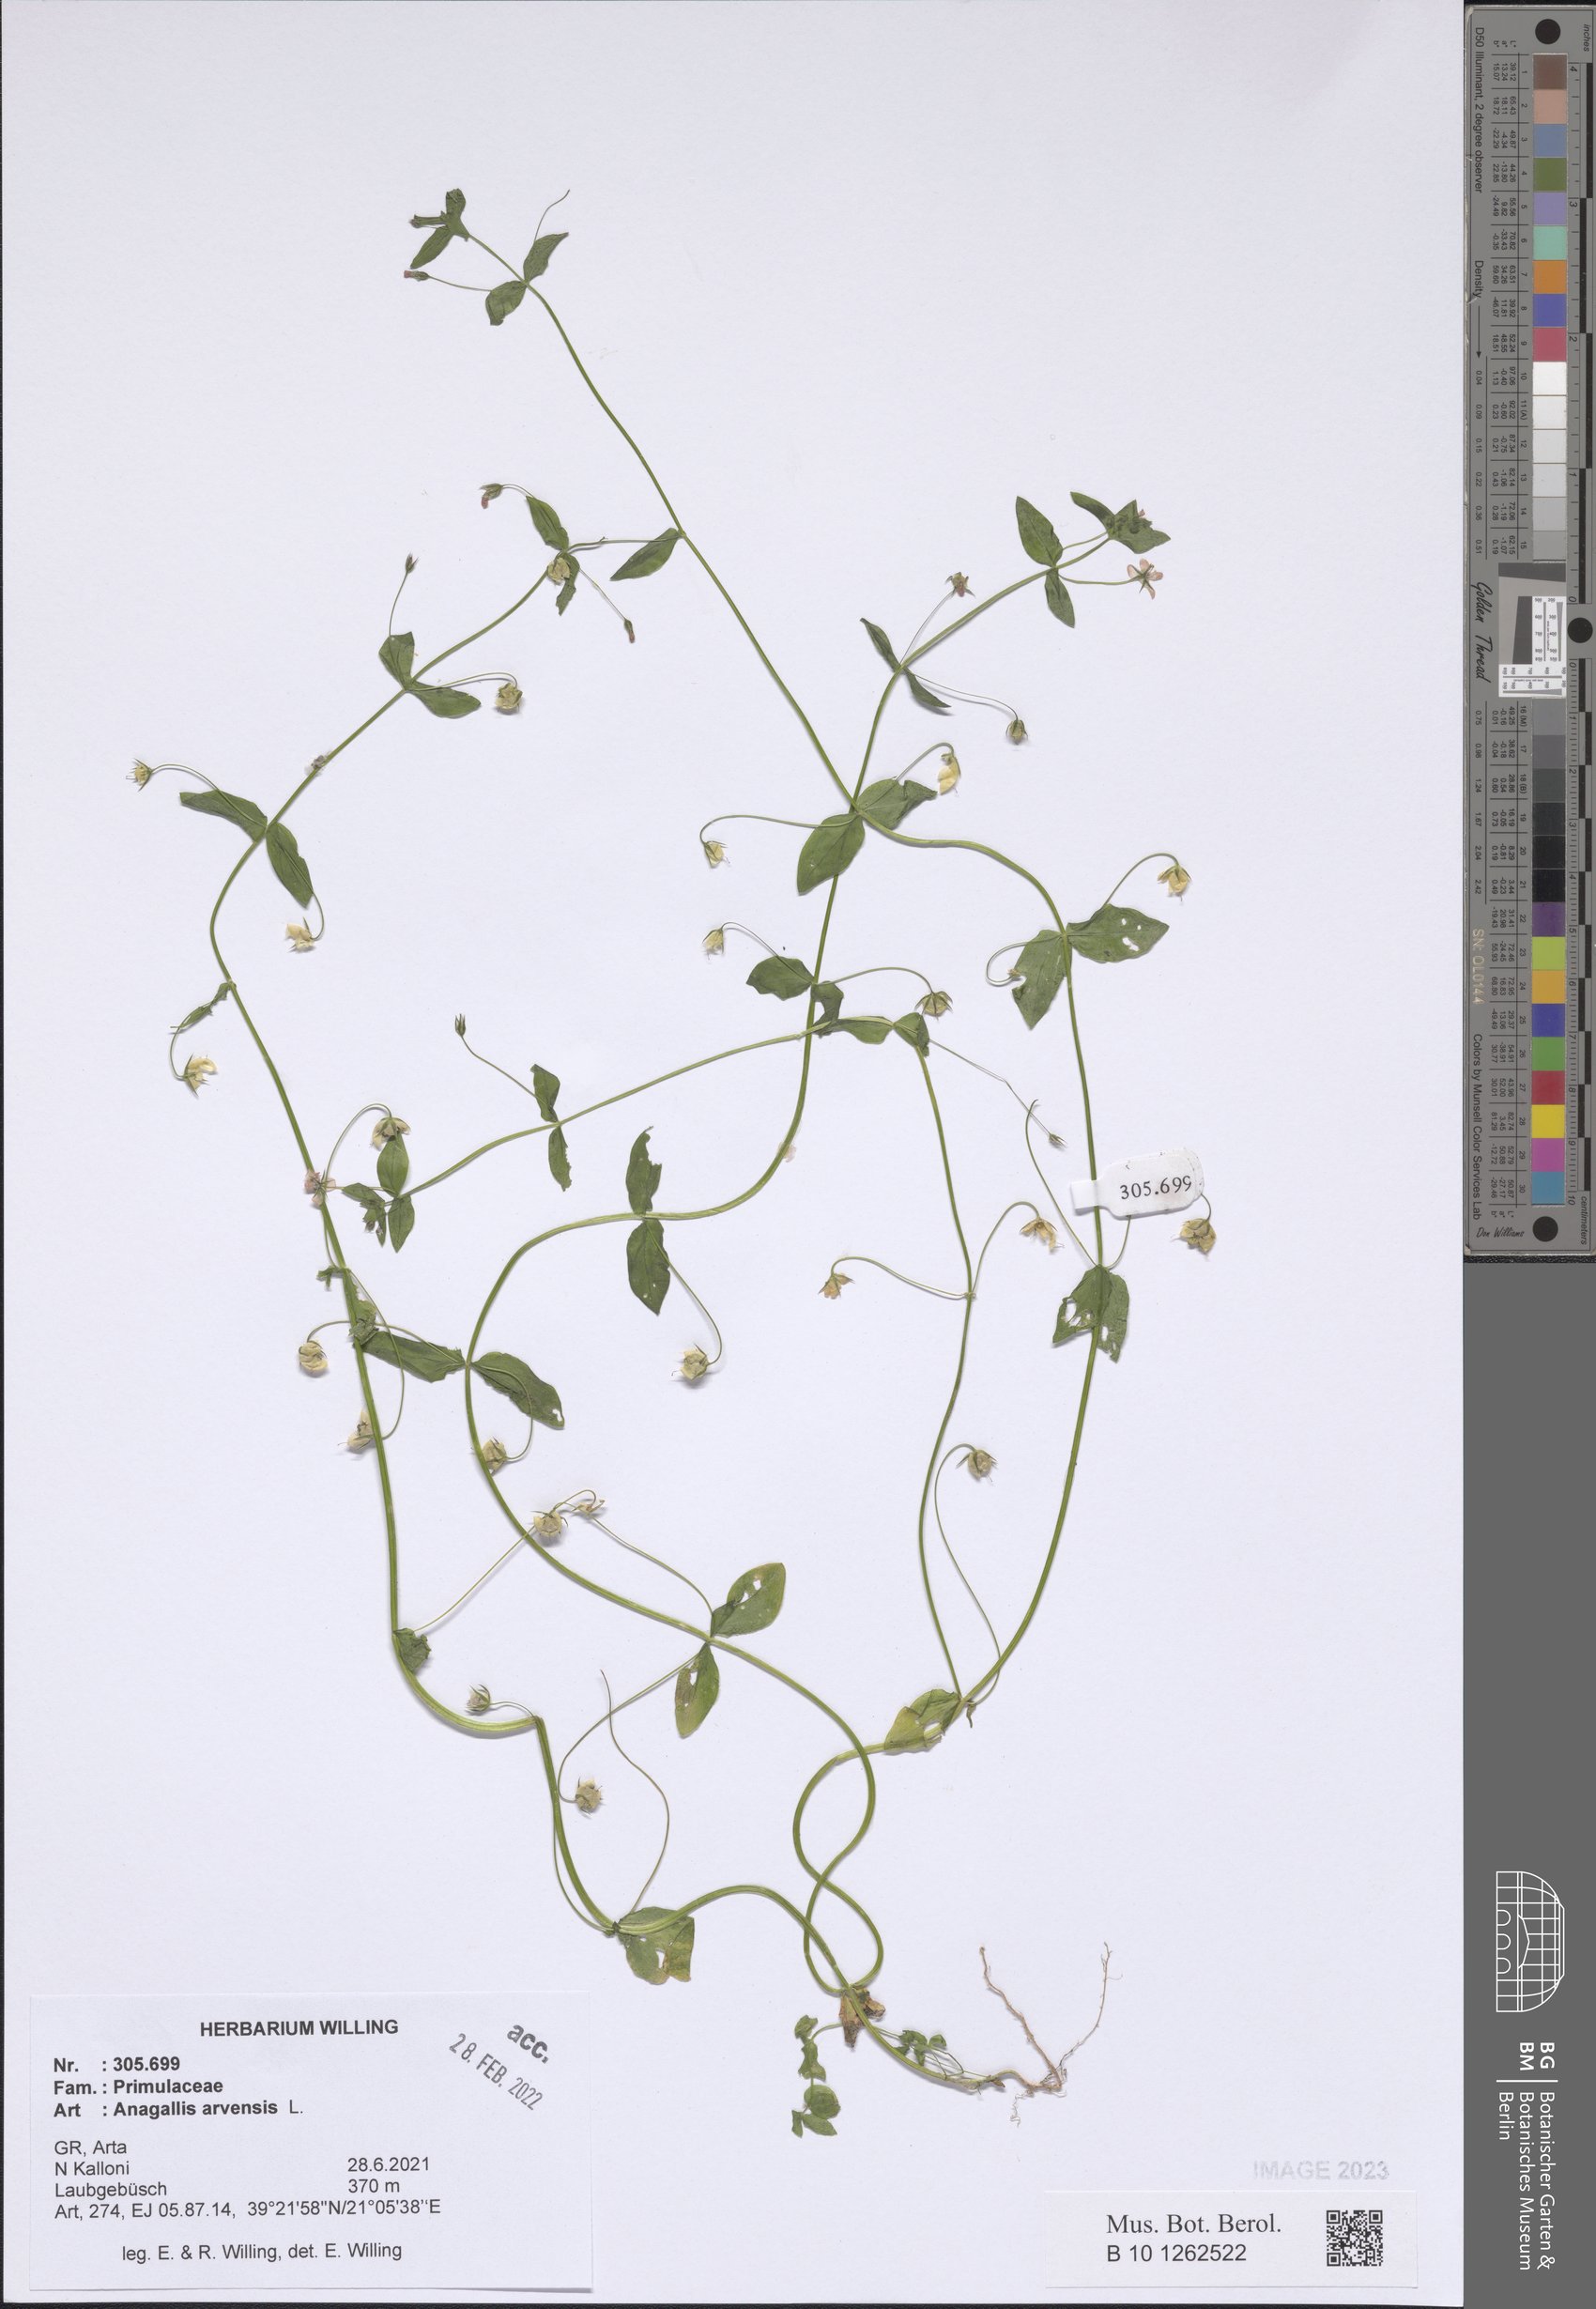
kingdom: Plantae
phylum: Tracheophyta
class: Magnoliopsida
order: Ericales
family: Primulaceae
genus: Lysimachia
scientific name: Lysimachia arvensis
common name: Scarlet pimpernel
